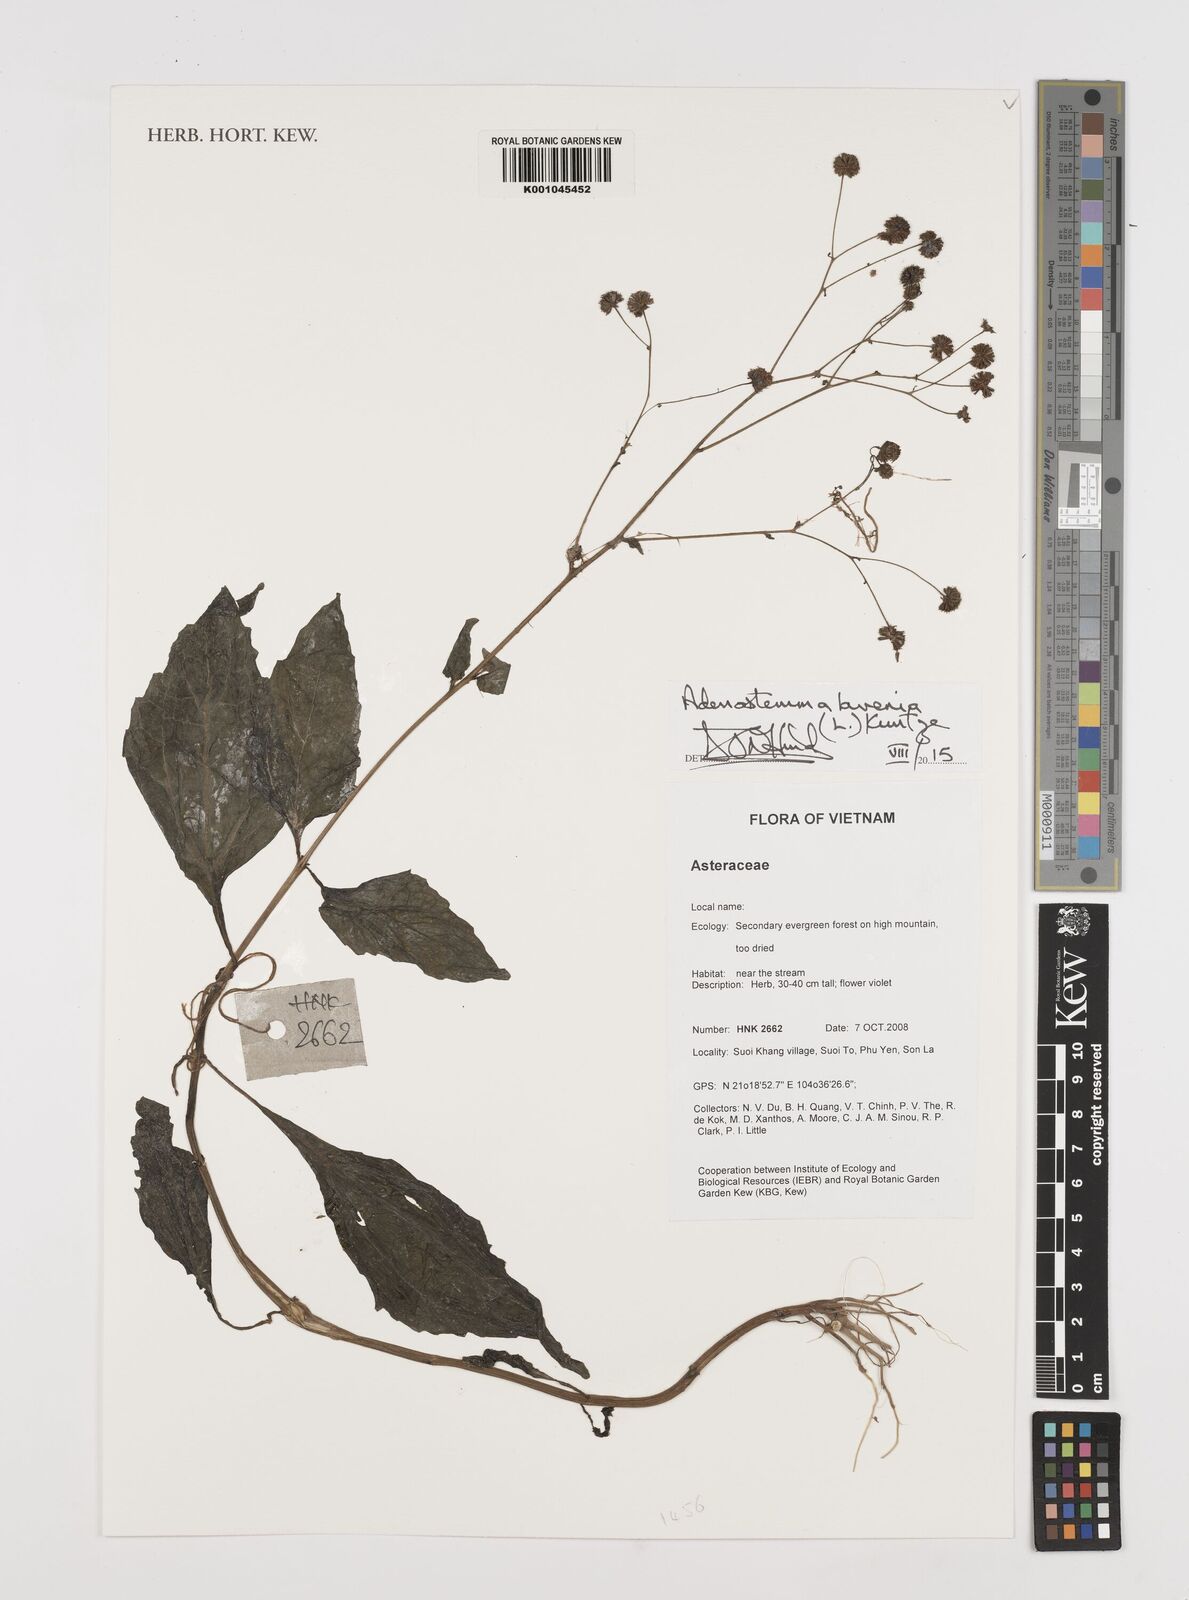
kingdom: Plantae
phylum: Tracheophyta
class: Magnoliopsida
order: Asterales
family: Asteraceae
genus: Adenostemma
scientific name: Adenostemma lavenia
